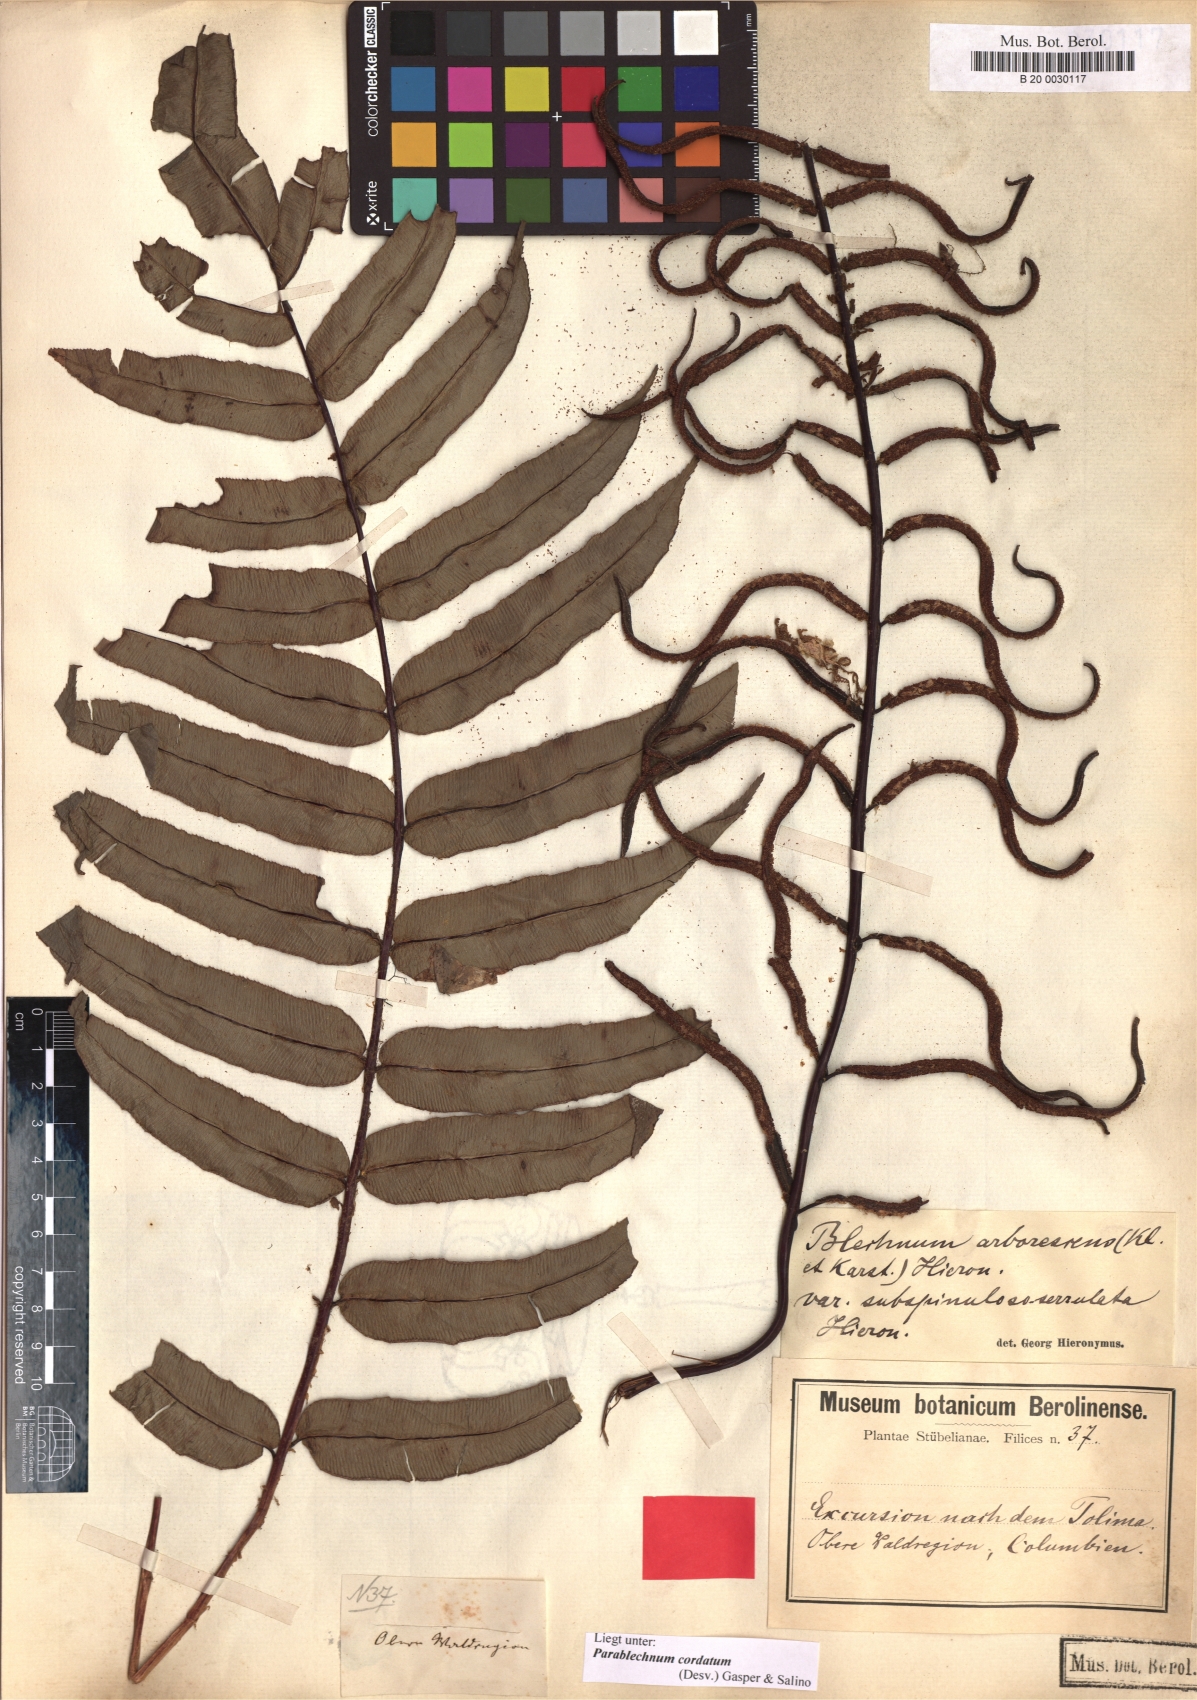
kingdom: Plantae
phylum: Tracheophyta
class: Polypodiopsida
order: Polypodiales
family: Blechnaceae
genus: Parablechnum
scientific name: Parablechnum cordatum
